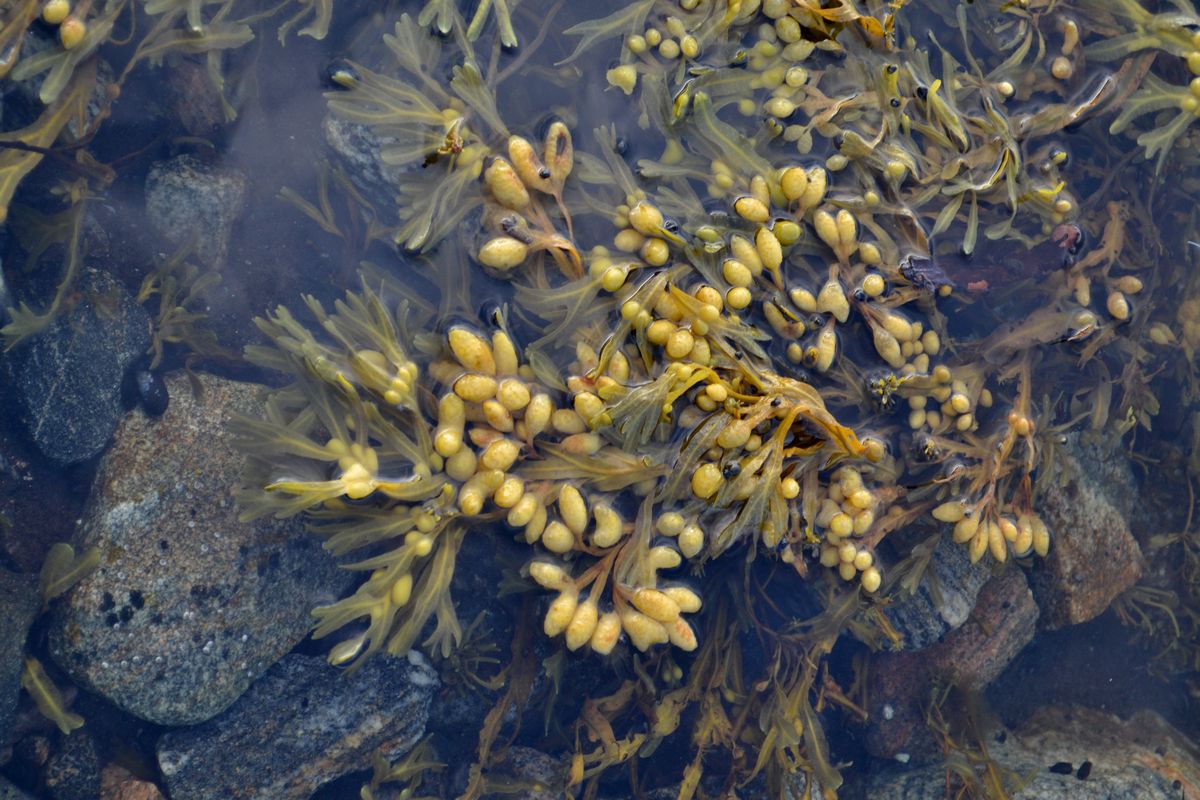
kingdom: Plantae
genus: Fucus
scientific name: Fucus
